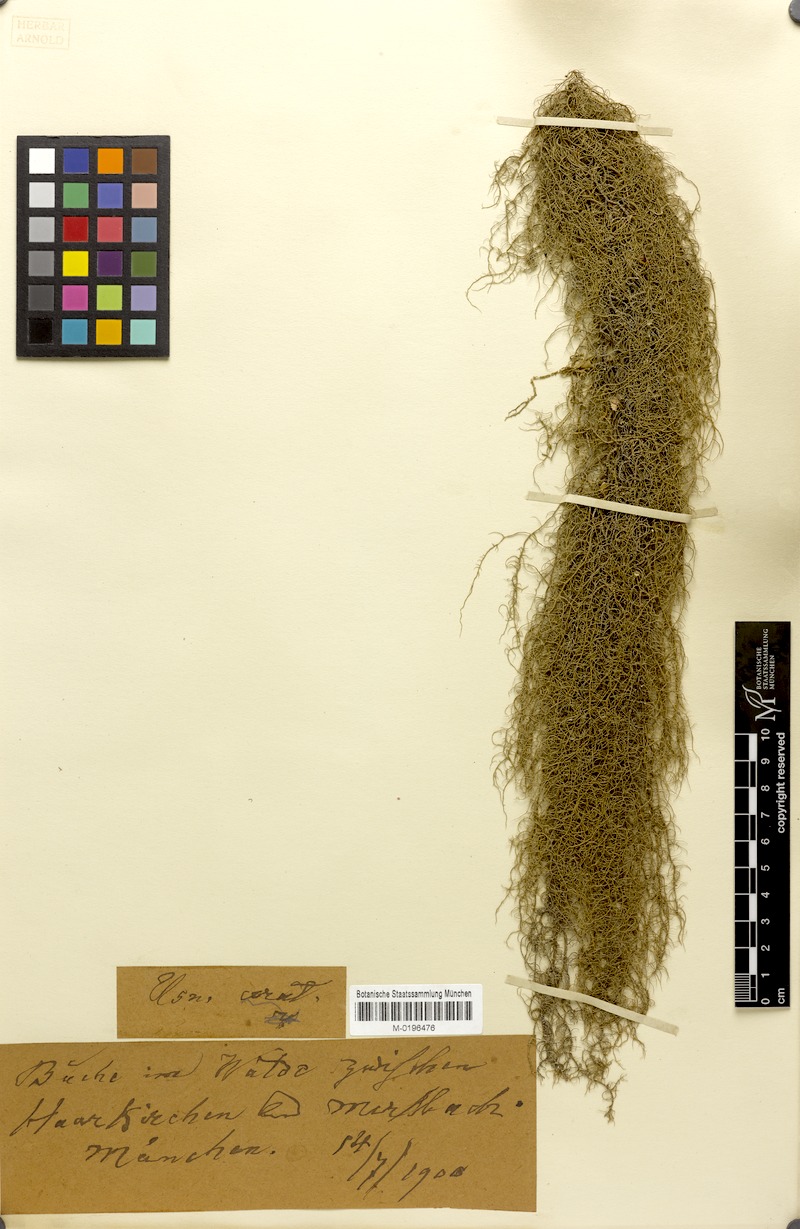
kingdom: Fungi
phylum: Ascomycota
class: Lecanoromycetes
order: Lecanorales
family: Parmeliaceae
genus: Usnea
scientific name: Usnea ceratina
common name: Warty beard lichen
